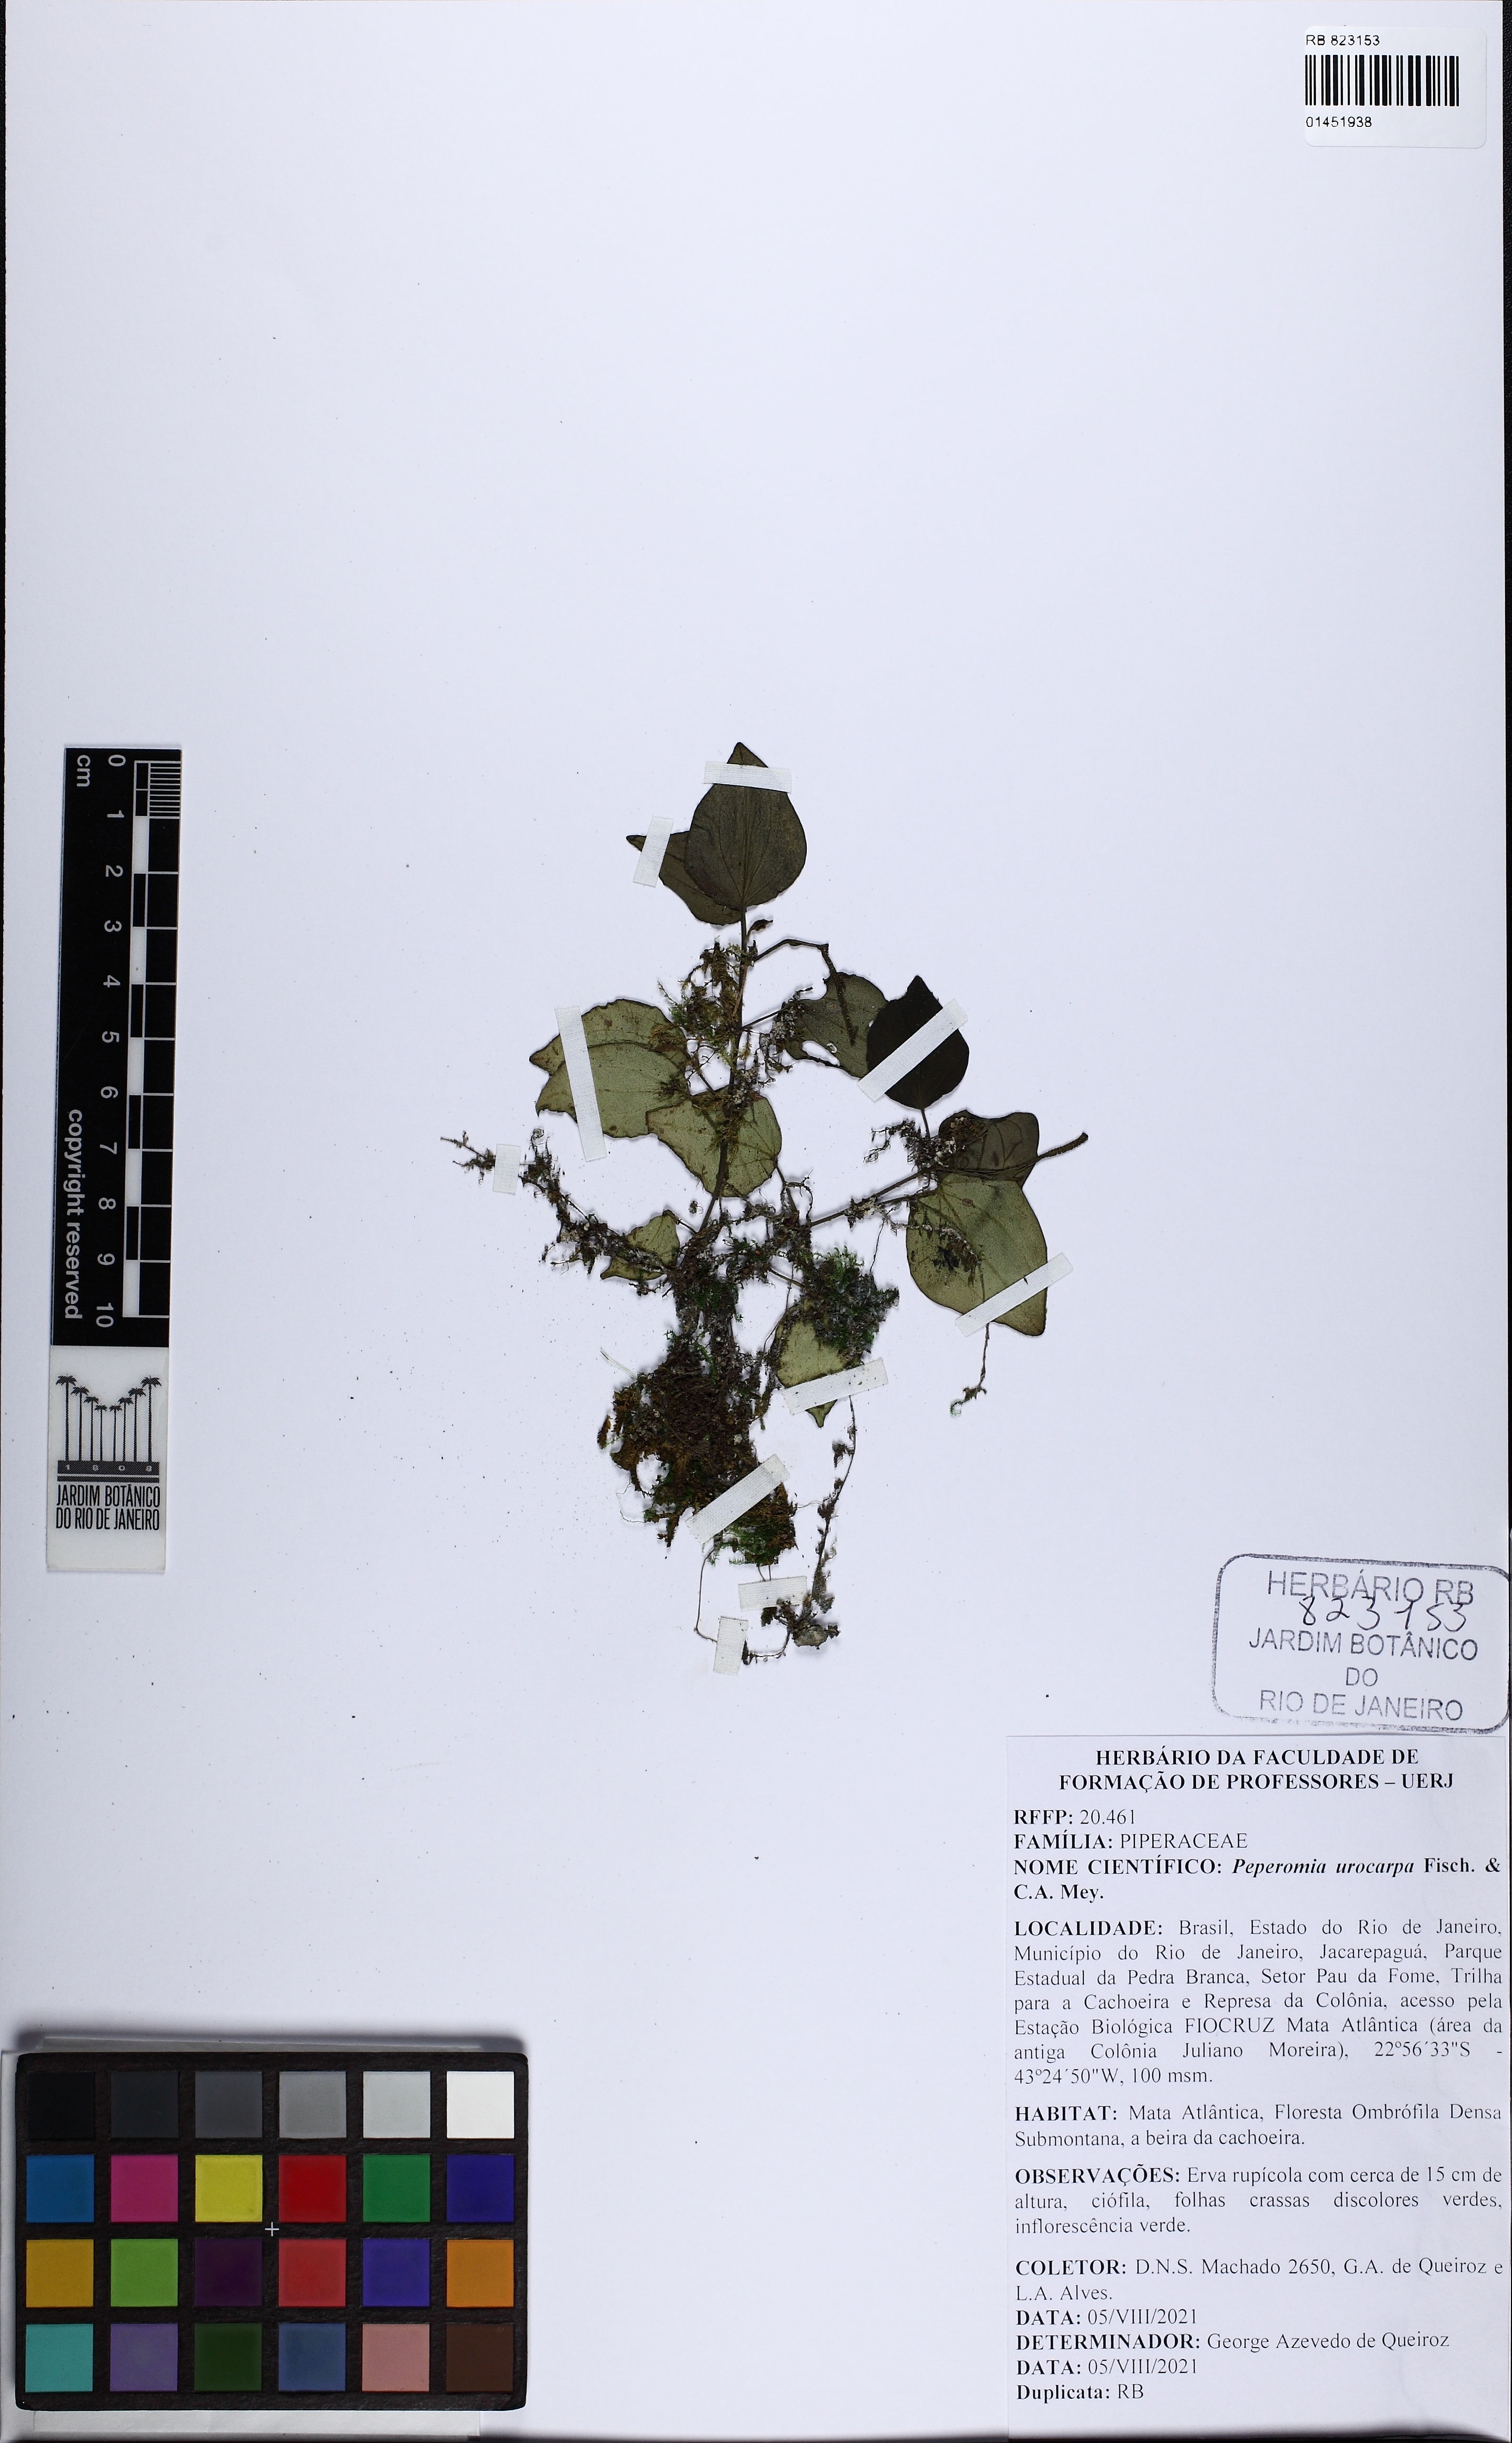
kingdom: Plantae
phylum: Tracheophyta
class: Magnoliopsida
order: Piperales
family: Piperaceae
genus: Peperomia
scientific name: Peperomia urocarpa
